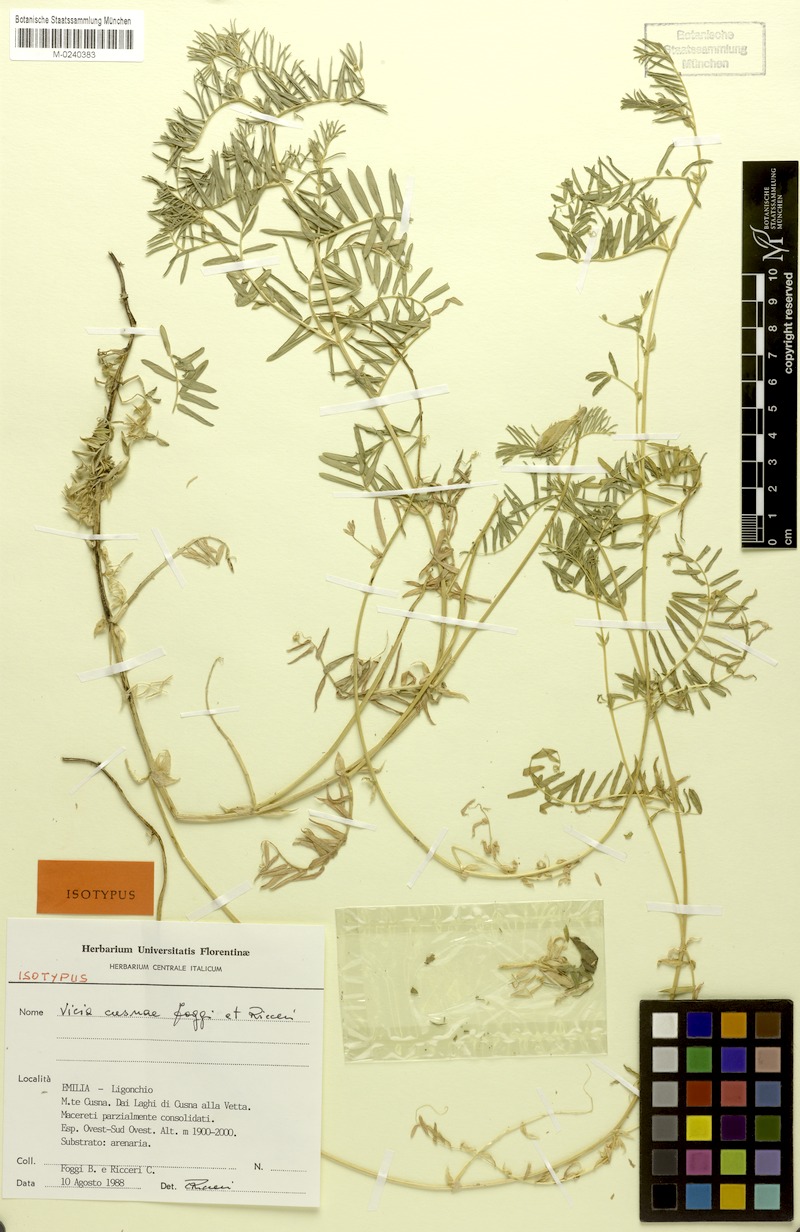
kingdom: Plantae
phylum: Tracheophyta
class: Magnoliopsida
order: Fabales
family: Fabaceae
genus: Vicia
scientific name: Vicia cusnae
